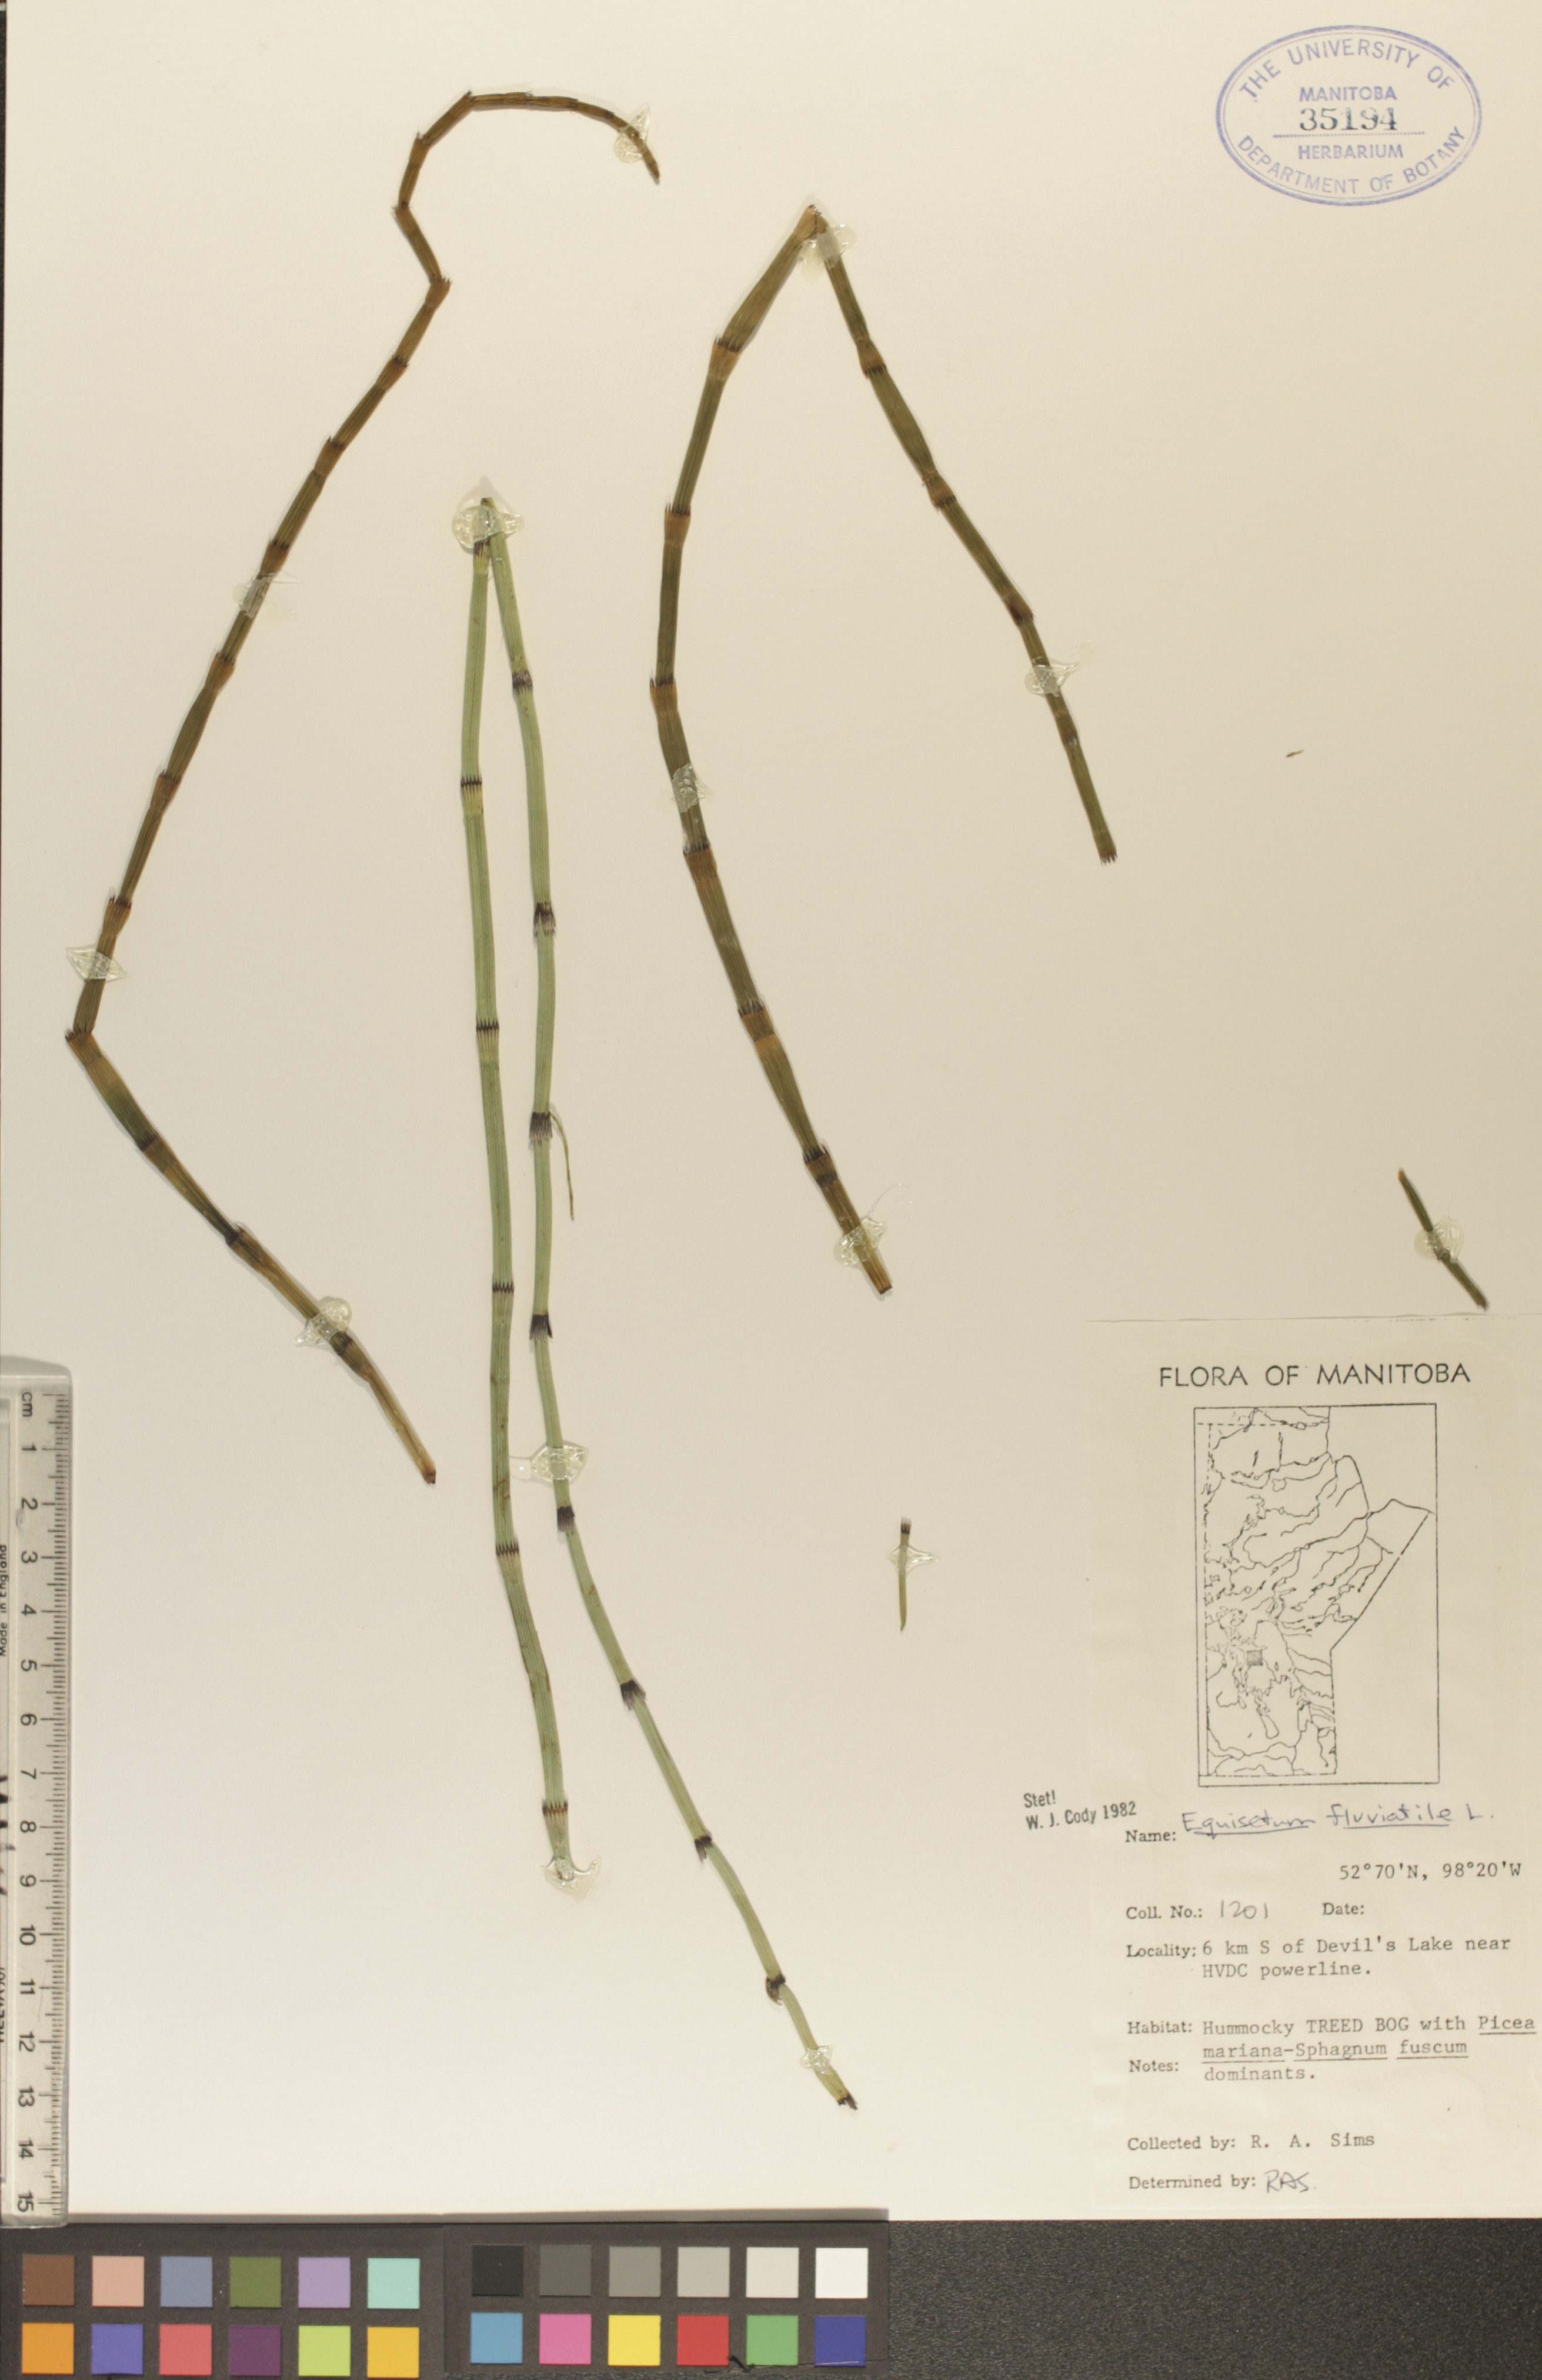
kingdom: Plantae
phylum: Tracheophyta
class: Polypodiopsida
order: Equisetales
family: Equisetaceae
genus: Equisetum
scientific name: Equisetum fluviatile
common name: Water horsetail
